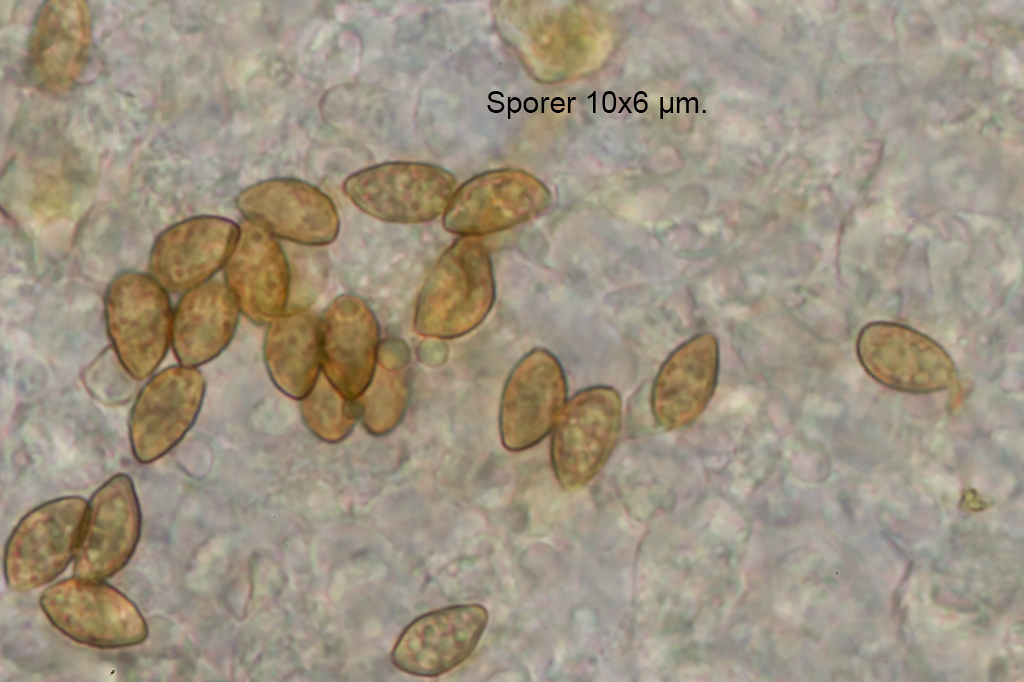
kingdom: Fungi
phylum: Basidiomycota
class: Agaricomycetes
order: Agaricales
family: Cortinariaceae
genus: Calonarius
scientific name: Calonarius fulvocitrinus
